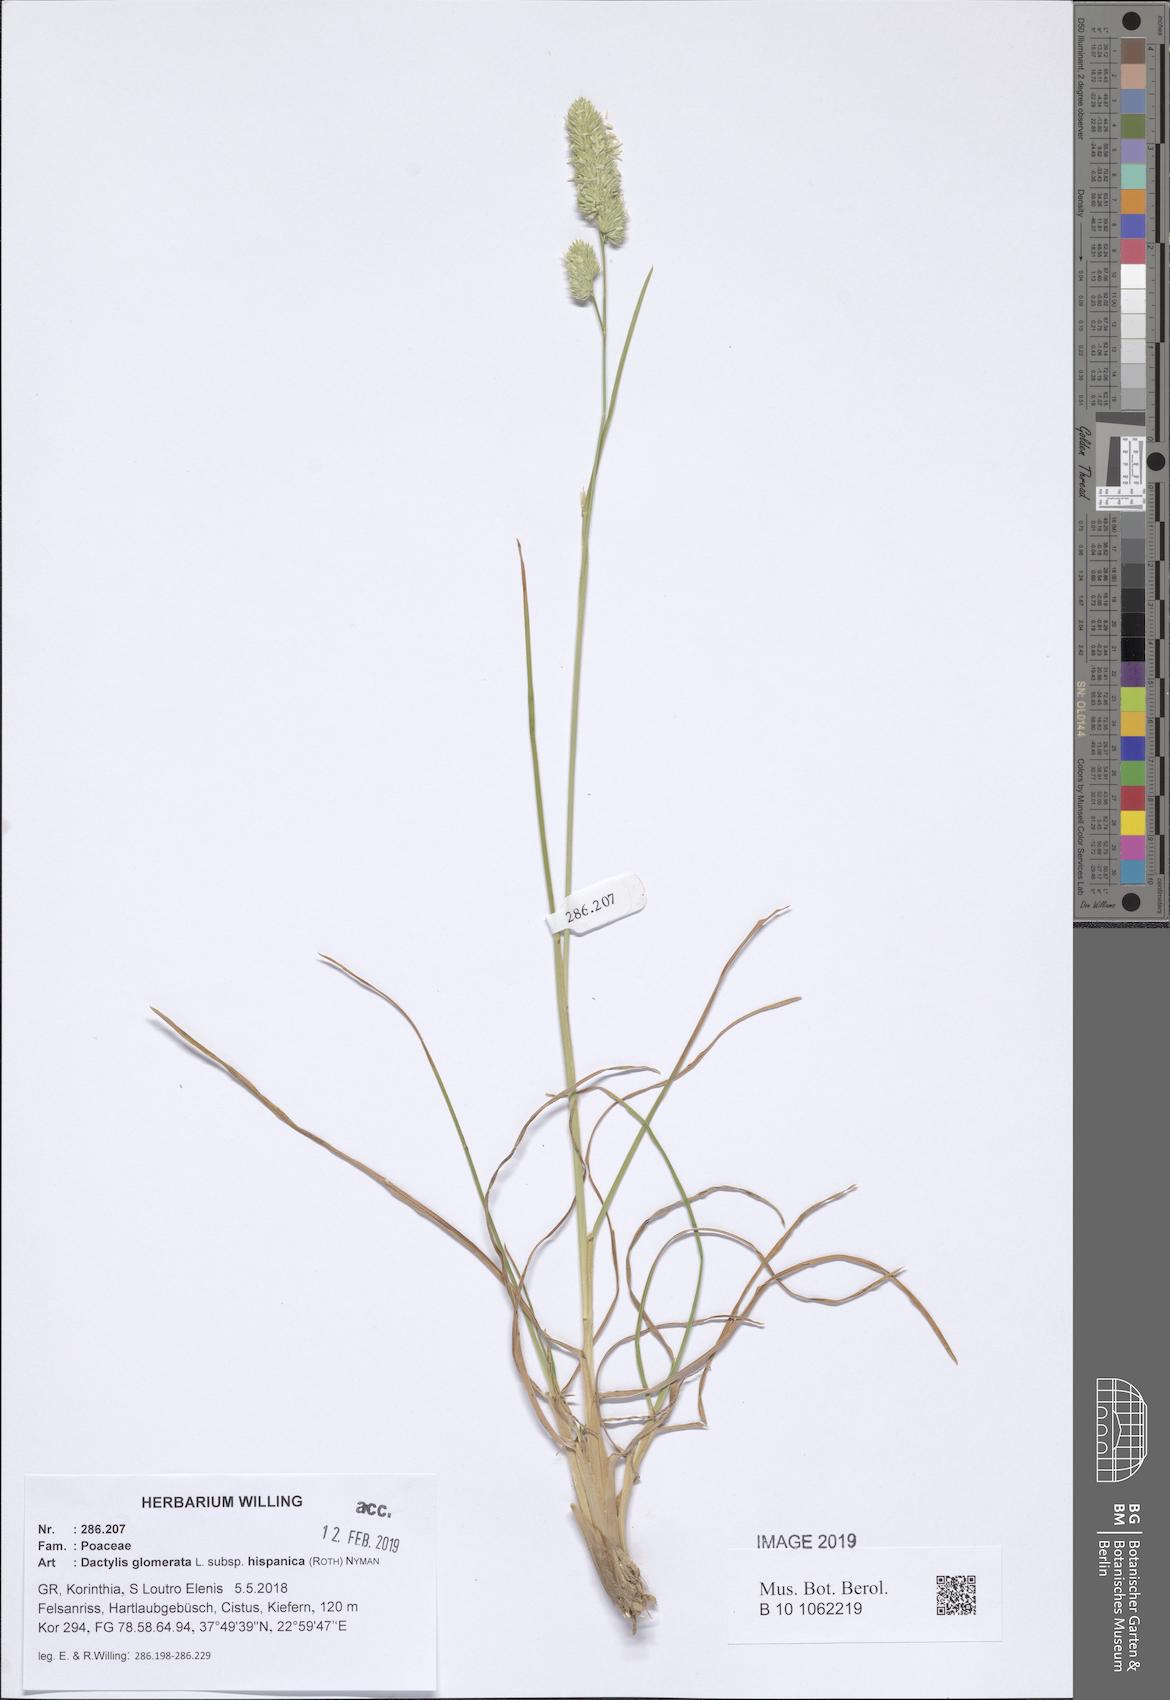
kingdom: Plantae
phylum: Tracheophyta
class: Liliopsida
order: Poales
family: Poaceae
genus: Dactylis
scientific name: Dactylis glomerata
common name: Orchardgrass
